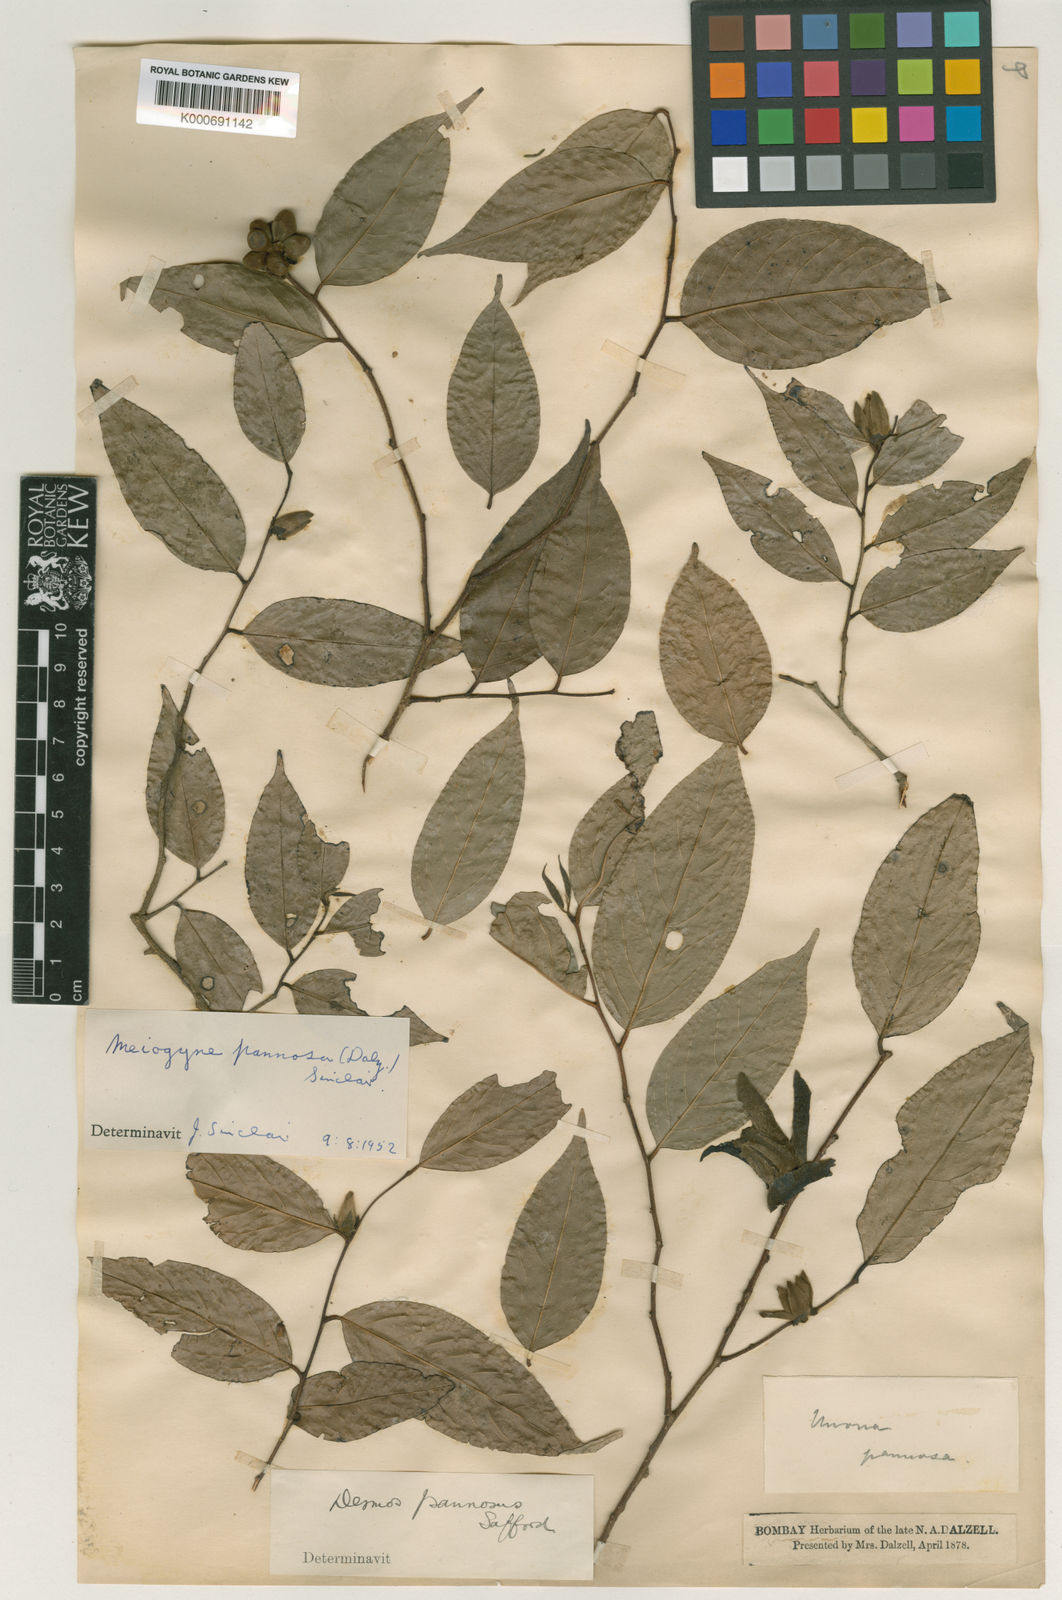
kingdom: Plantae
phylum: Tracheophyta
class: Magnoliopsida
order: Magnoliales
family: Annonaceae
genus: Meiogyne
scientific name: Meiogyne pannosa
